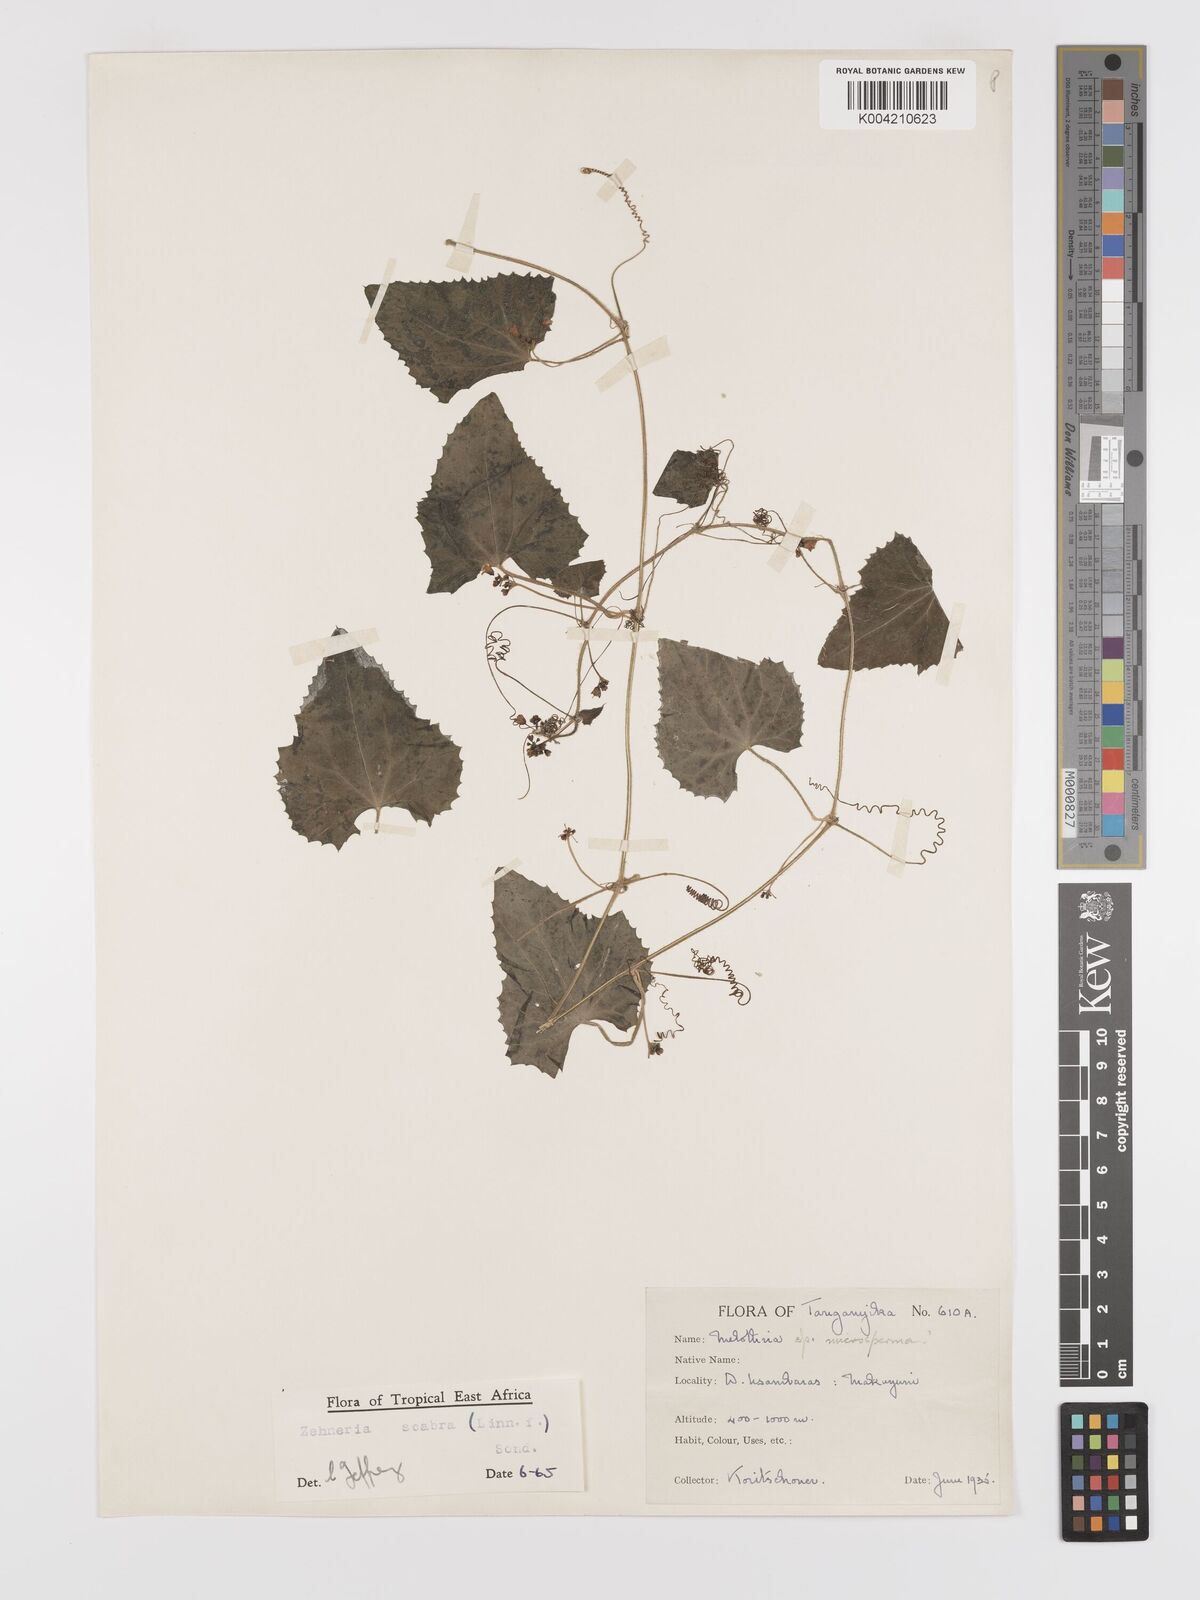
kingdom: Plantae
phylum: Tracheophyta
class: Magnoliopsida
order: Cucurbitales
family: Cucurbitaceae
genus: Zehneria
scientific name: Zehneria scabra
